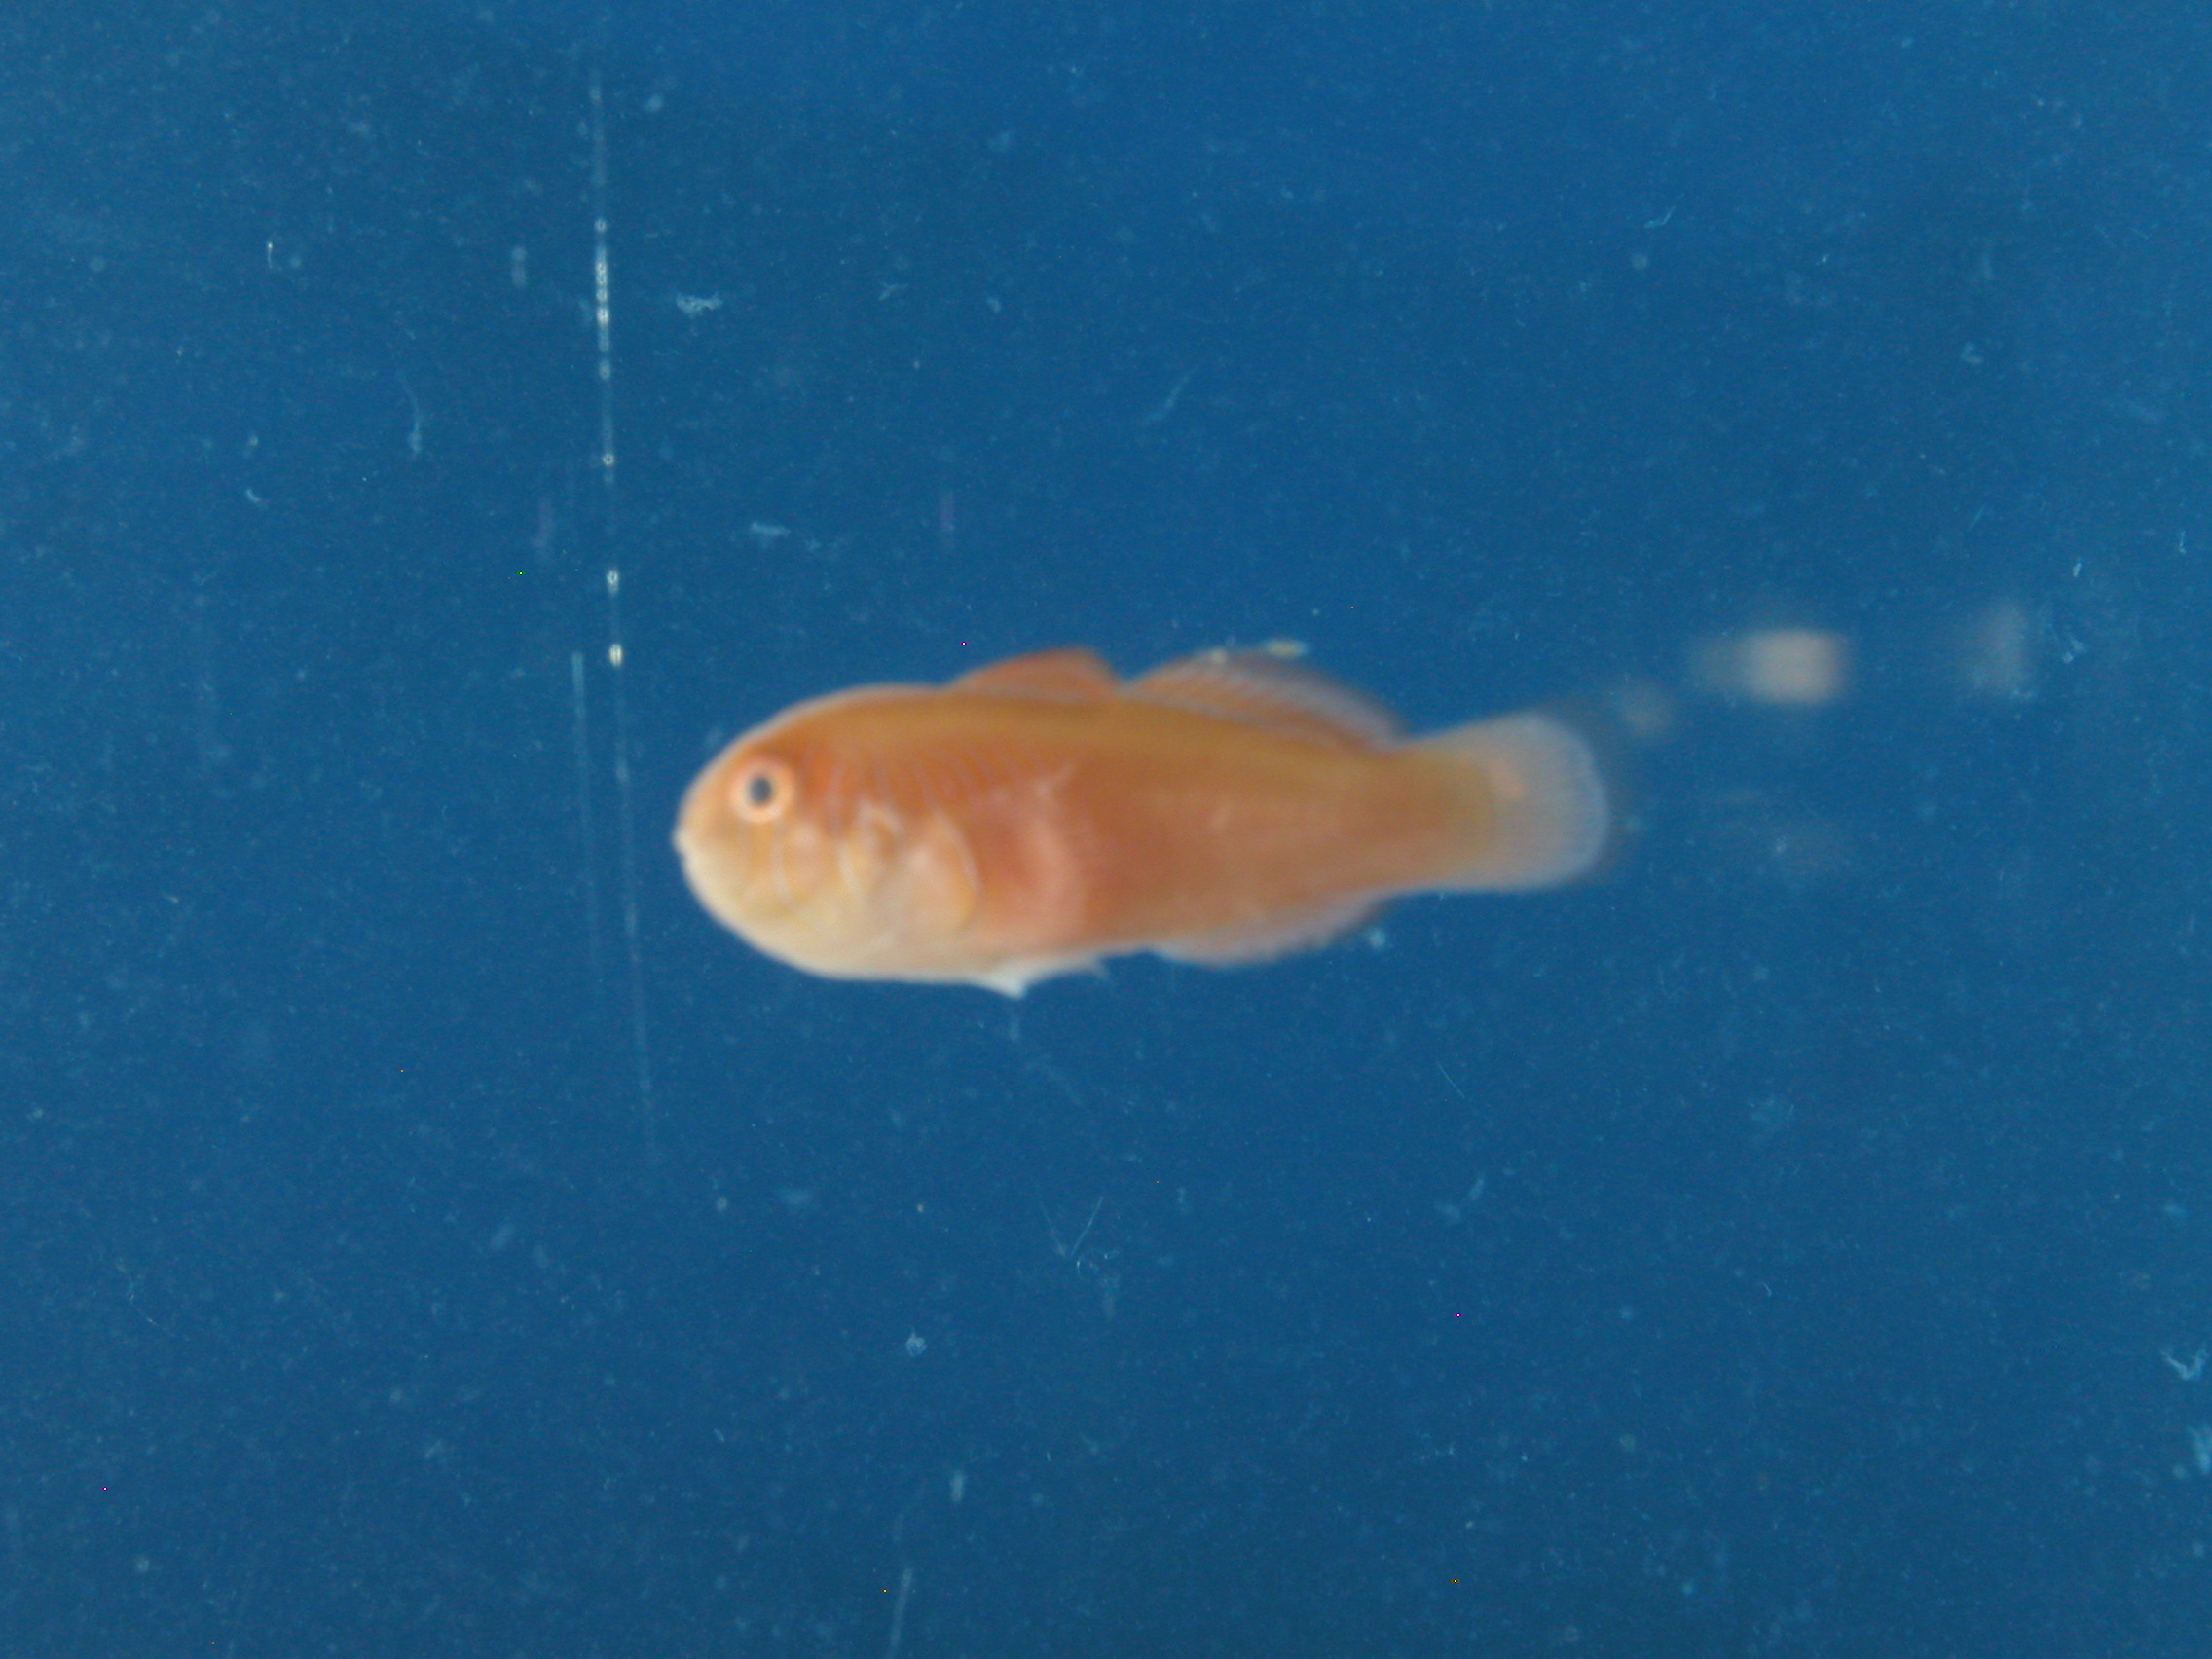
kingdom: Animalia
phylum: Chordata
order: Perciformes
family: Gobiidae
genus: Gobiodon
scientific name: Gobiodon quinquestrigatus
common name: Five-bar coralgoby
